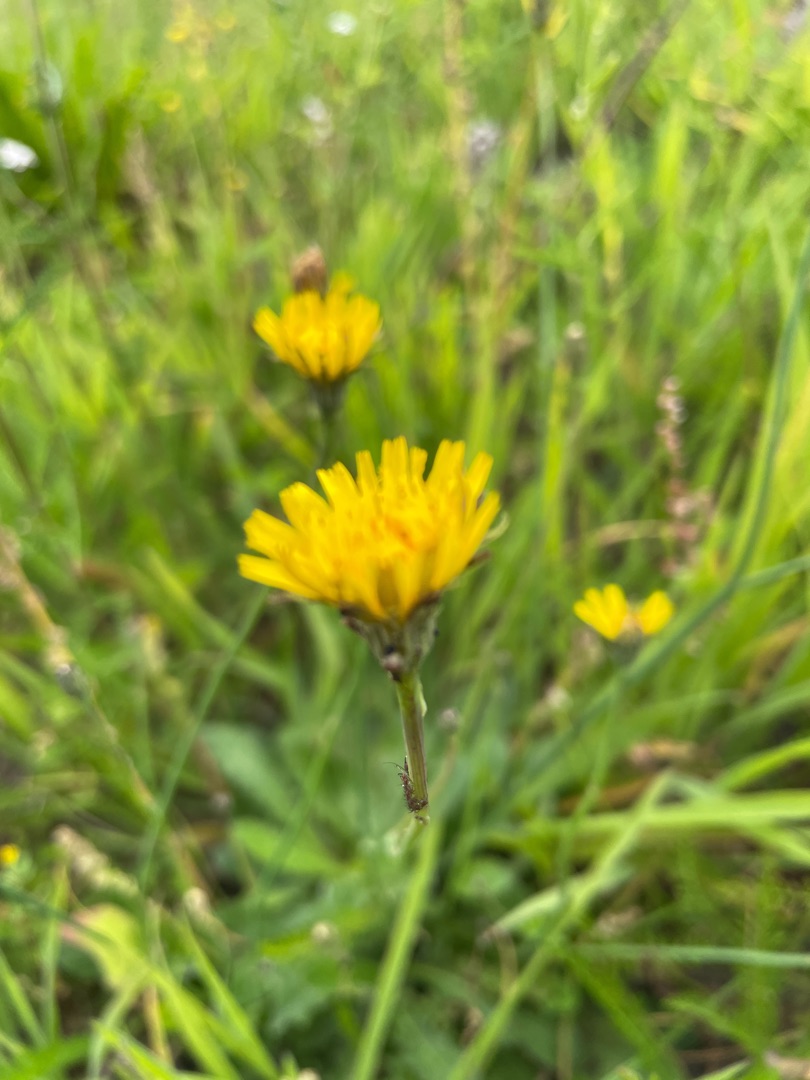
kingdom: Plantae
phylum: Tracheophyta
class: Magnoliopsida
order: Asterales
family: Asteraceae
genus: Hypochaeris
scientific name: Hypochaeris radicata
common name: Almindelig kongepen
